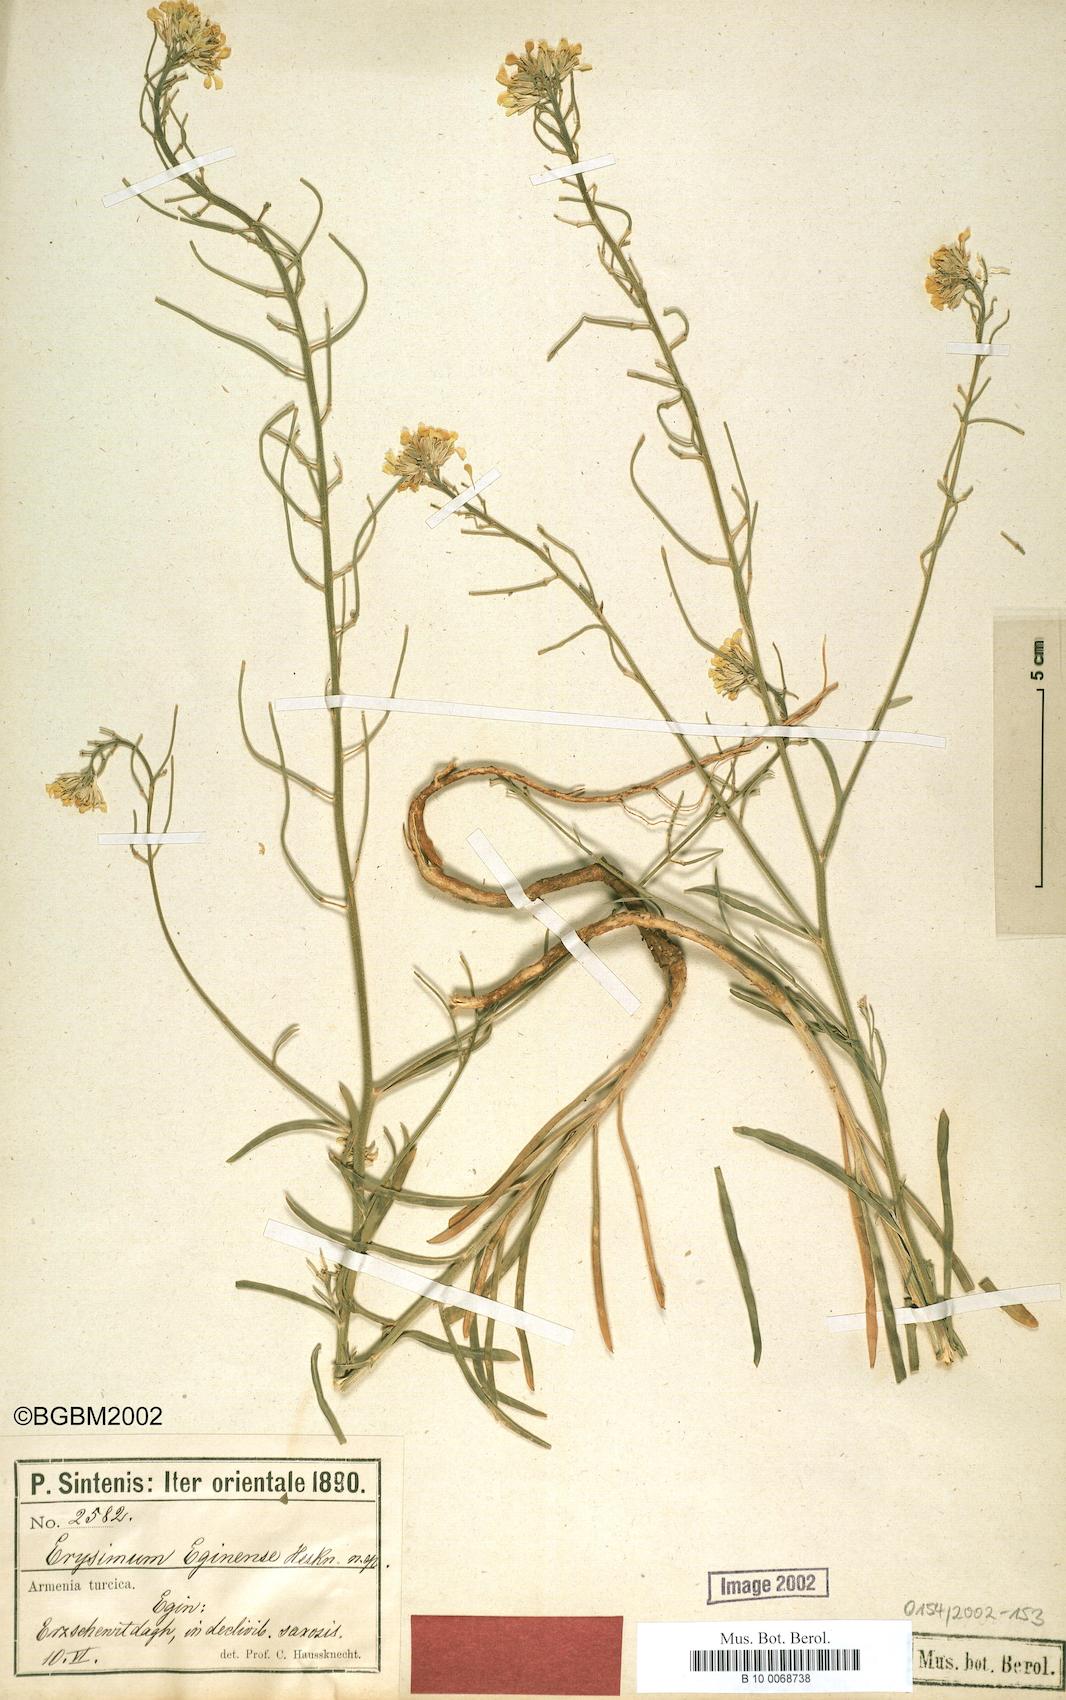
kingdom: Plantae
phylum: Tracheophyta
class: Magnoliopsida
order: Brassicales
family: Brassicaceae
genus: Erysimum
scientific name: Erysimum smyrnaeum
